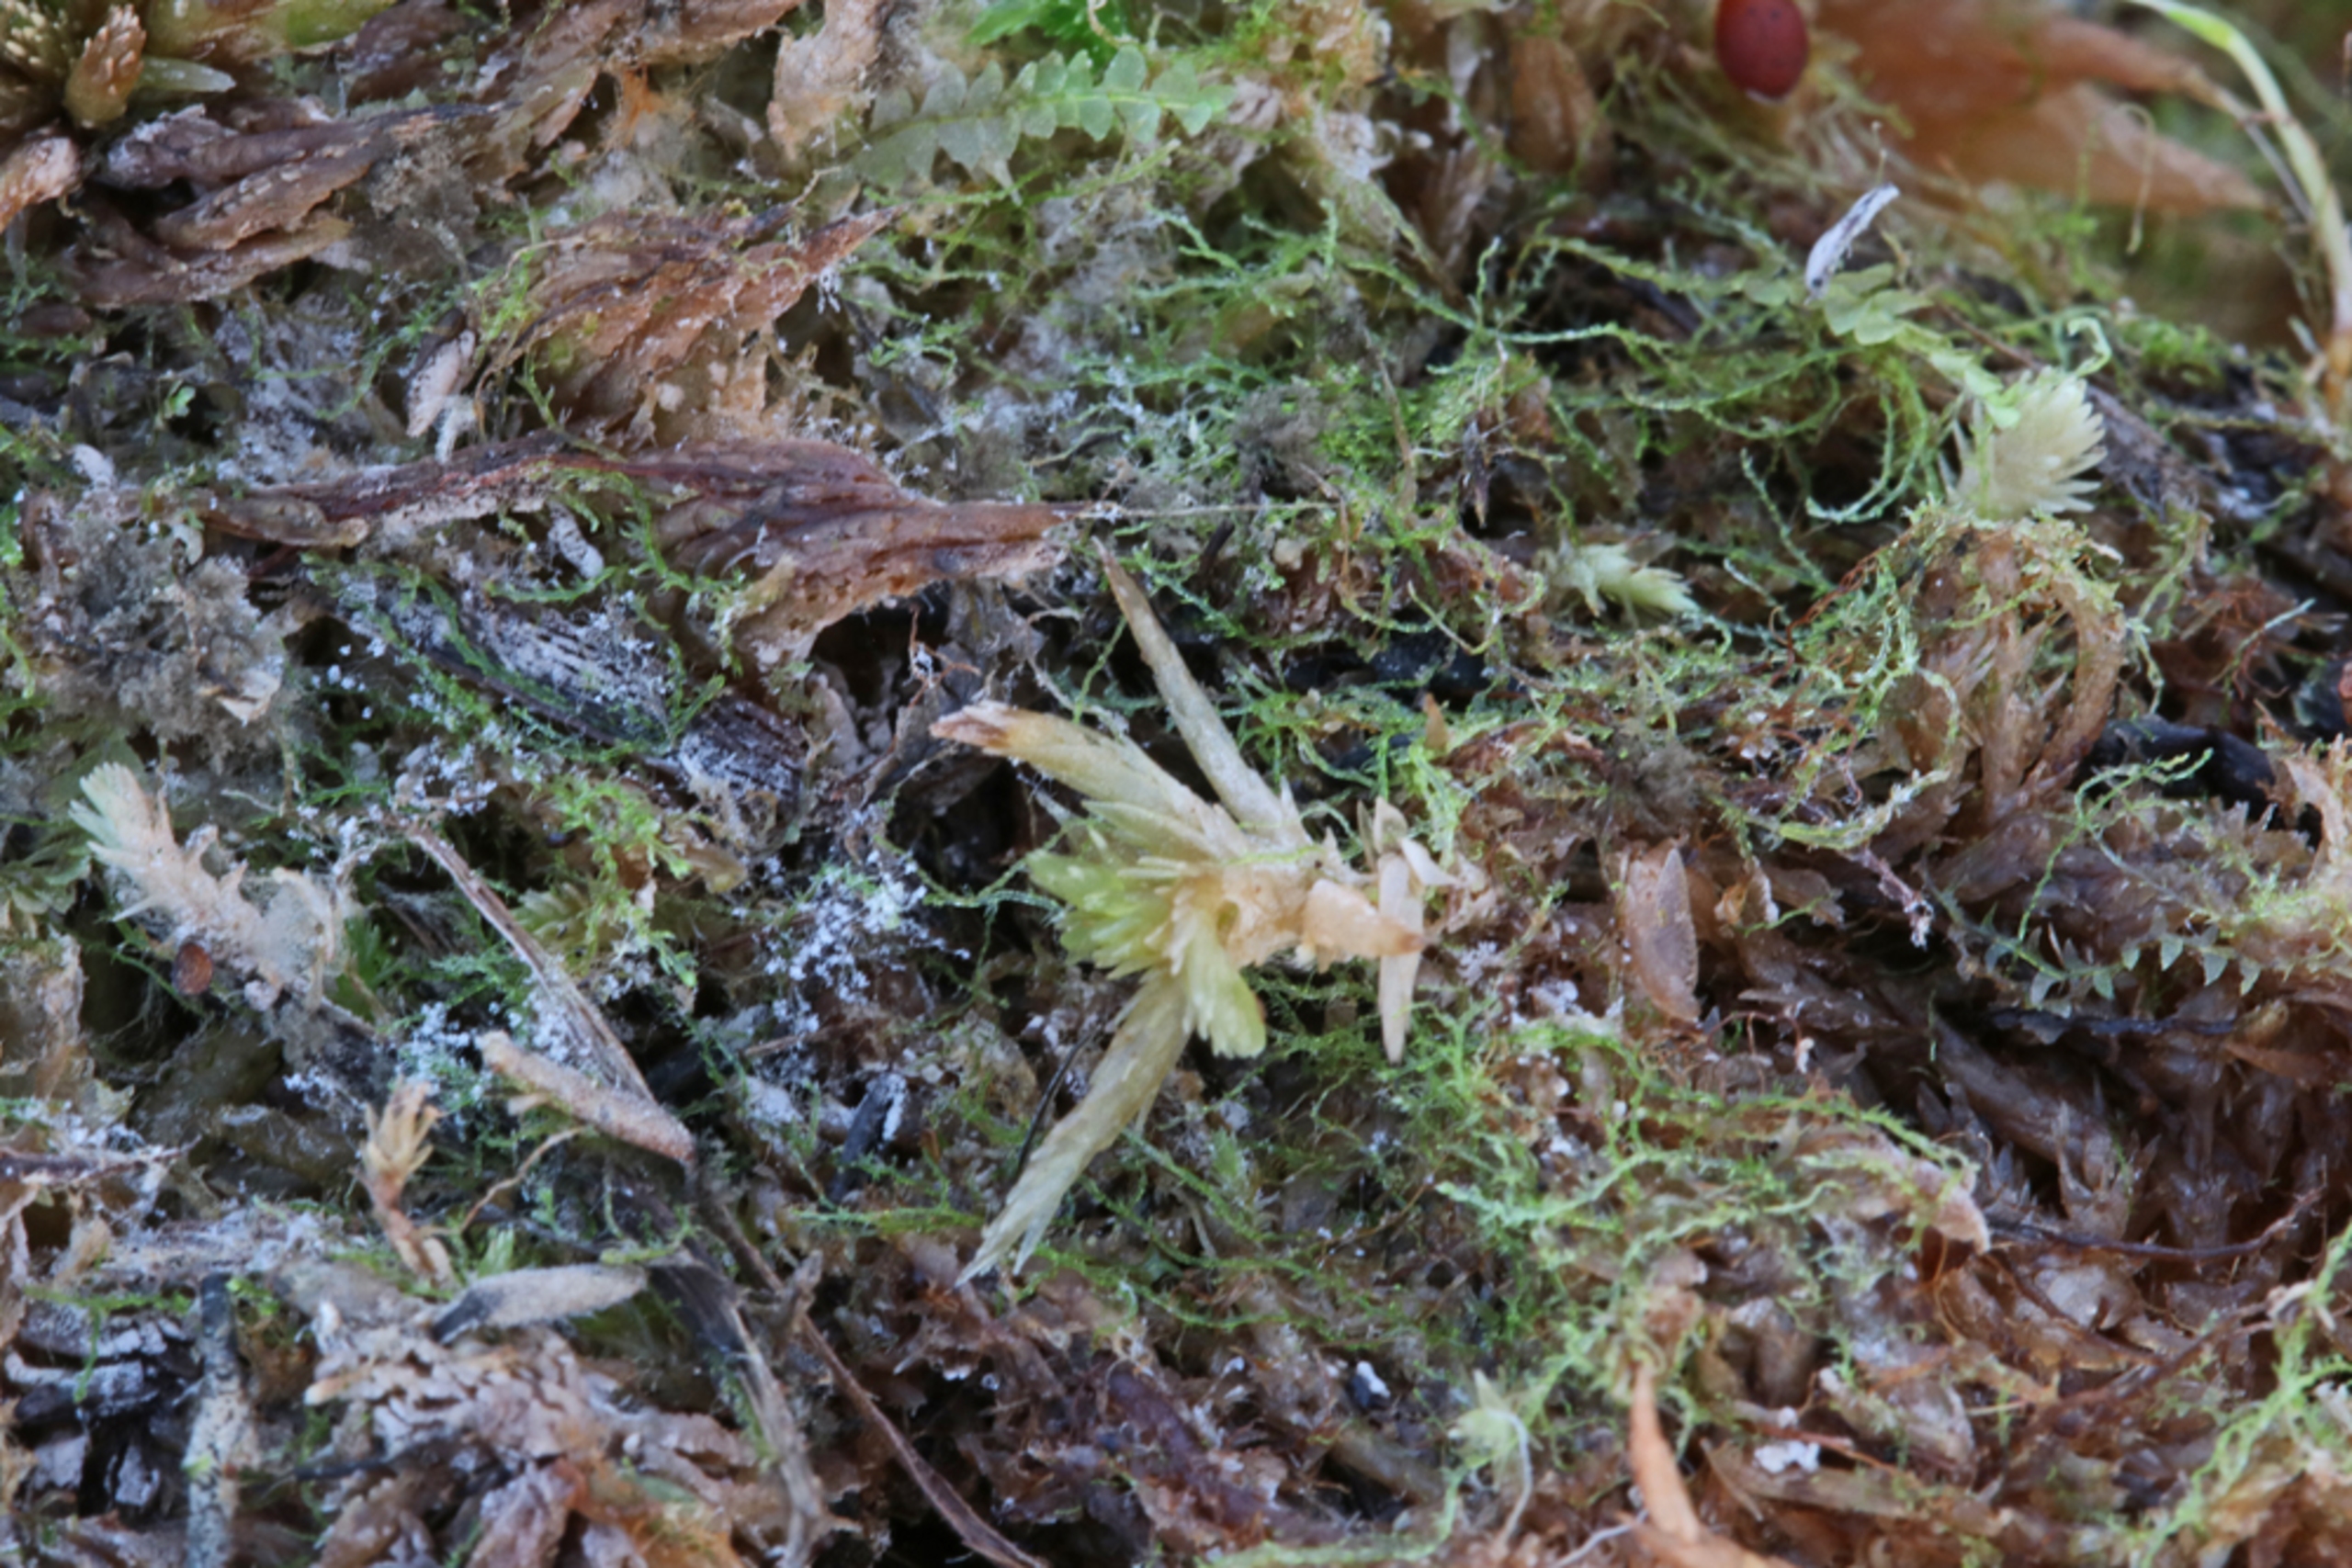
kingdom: Plantae
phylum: Marchantiophyta
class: Jungermanniopsida
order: Jungermanniales
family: Cephaloziellaceae
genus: Cephaloziella
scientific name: Cephaloziella spinigera
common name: Fåtandet dværgtråd
